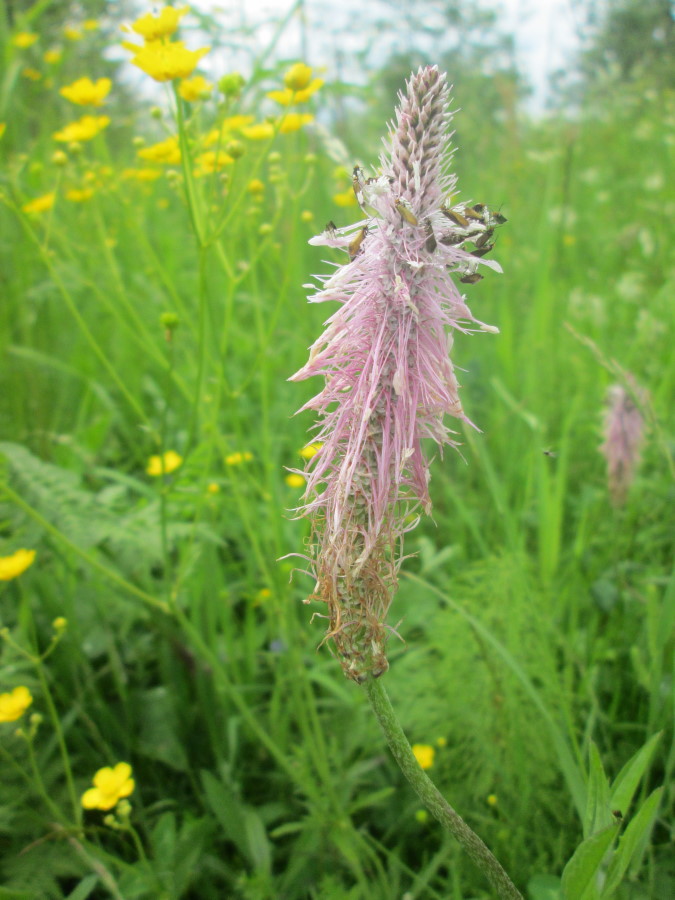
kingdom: Plantae
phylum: Tracheophyta
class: Magnoliopsida
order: Lamiales
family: Plantaginaceae
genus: Plantago
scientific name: Plantago media
